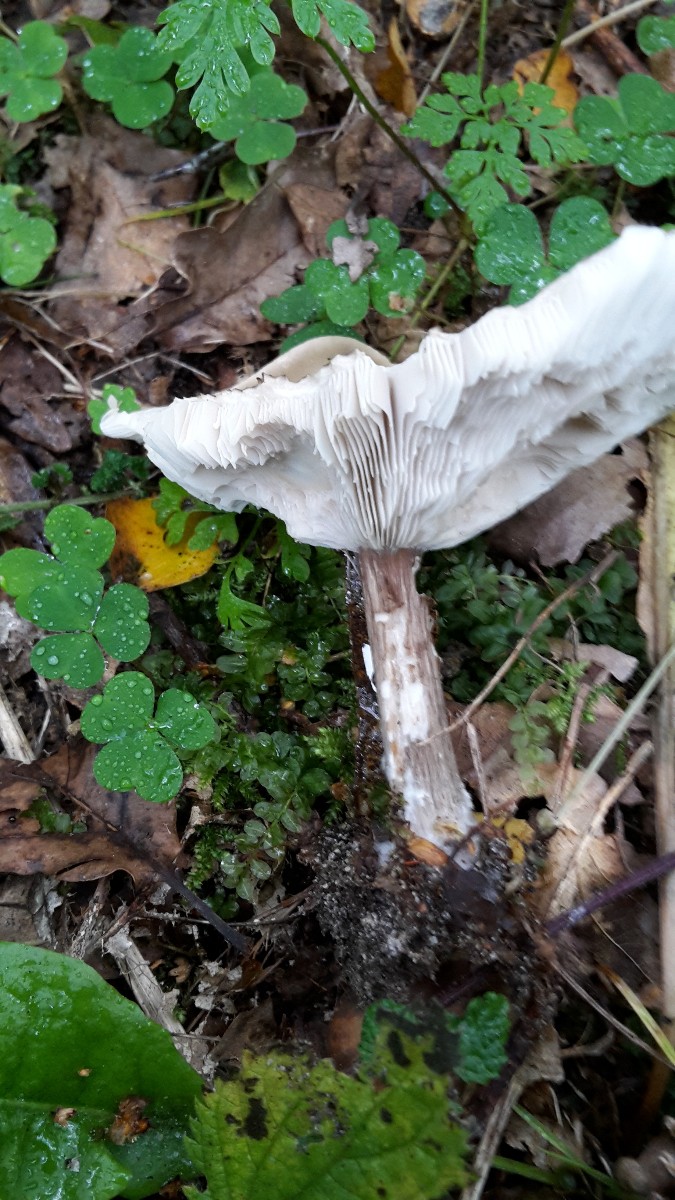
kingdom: Fungi
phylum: Basidiomycota
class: Agaricomycetes
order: Agaricales
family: Tricholomataceae
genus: Melanoleuca
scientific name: Melanoleuca
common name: munkehat
